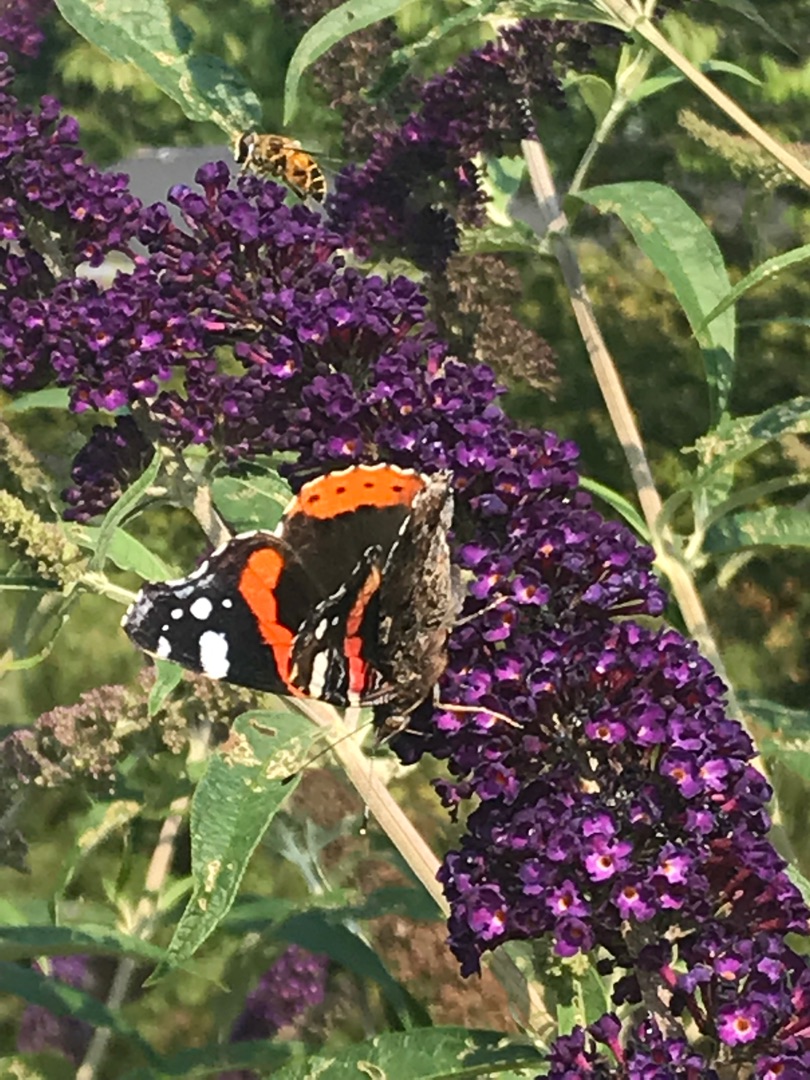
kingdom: Animalia
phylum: Arthropoda
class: Insecta
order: Lepidoptera
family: Nymphalidae
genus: Vanessa
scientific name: Vanessa atalanta
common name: Admiral
